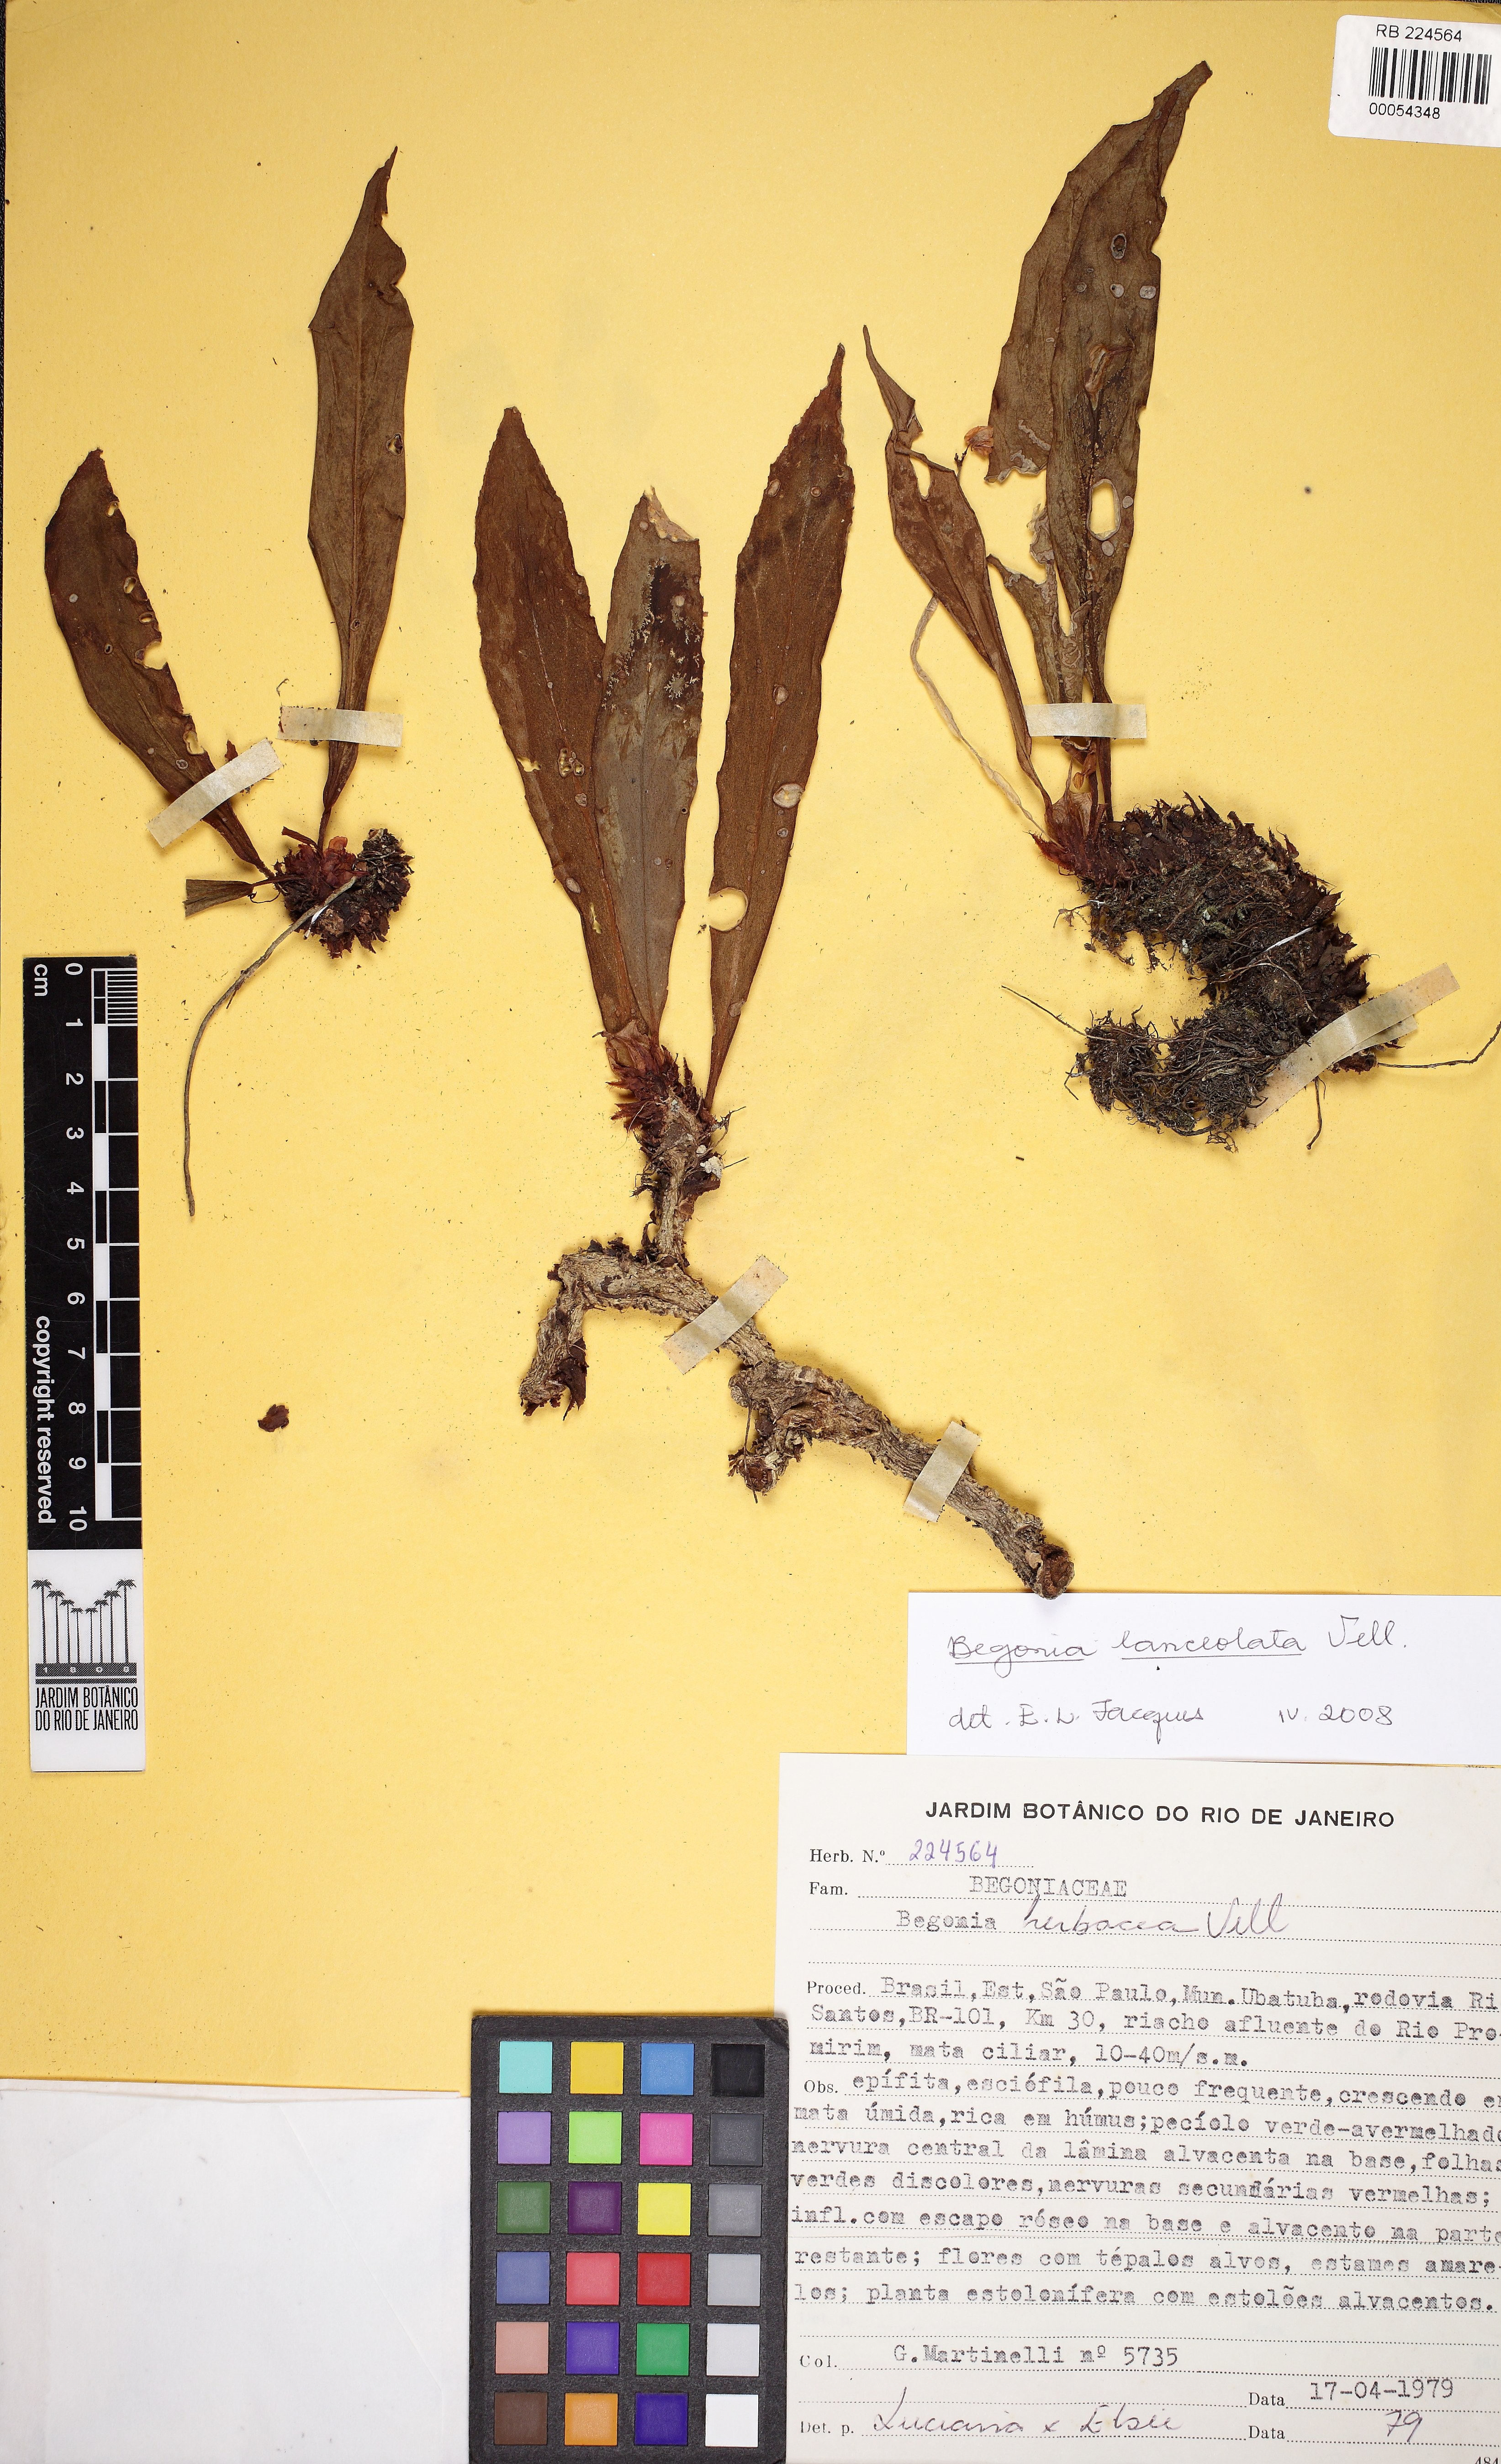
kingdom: Plantae
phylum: Tracheophyta
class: Magnoliopsida
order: Cucurbitales
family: Begoniaceae
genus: Begonia
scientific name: Begonia lanceolata
